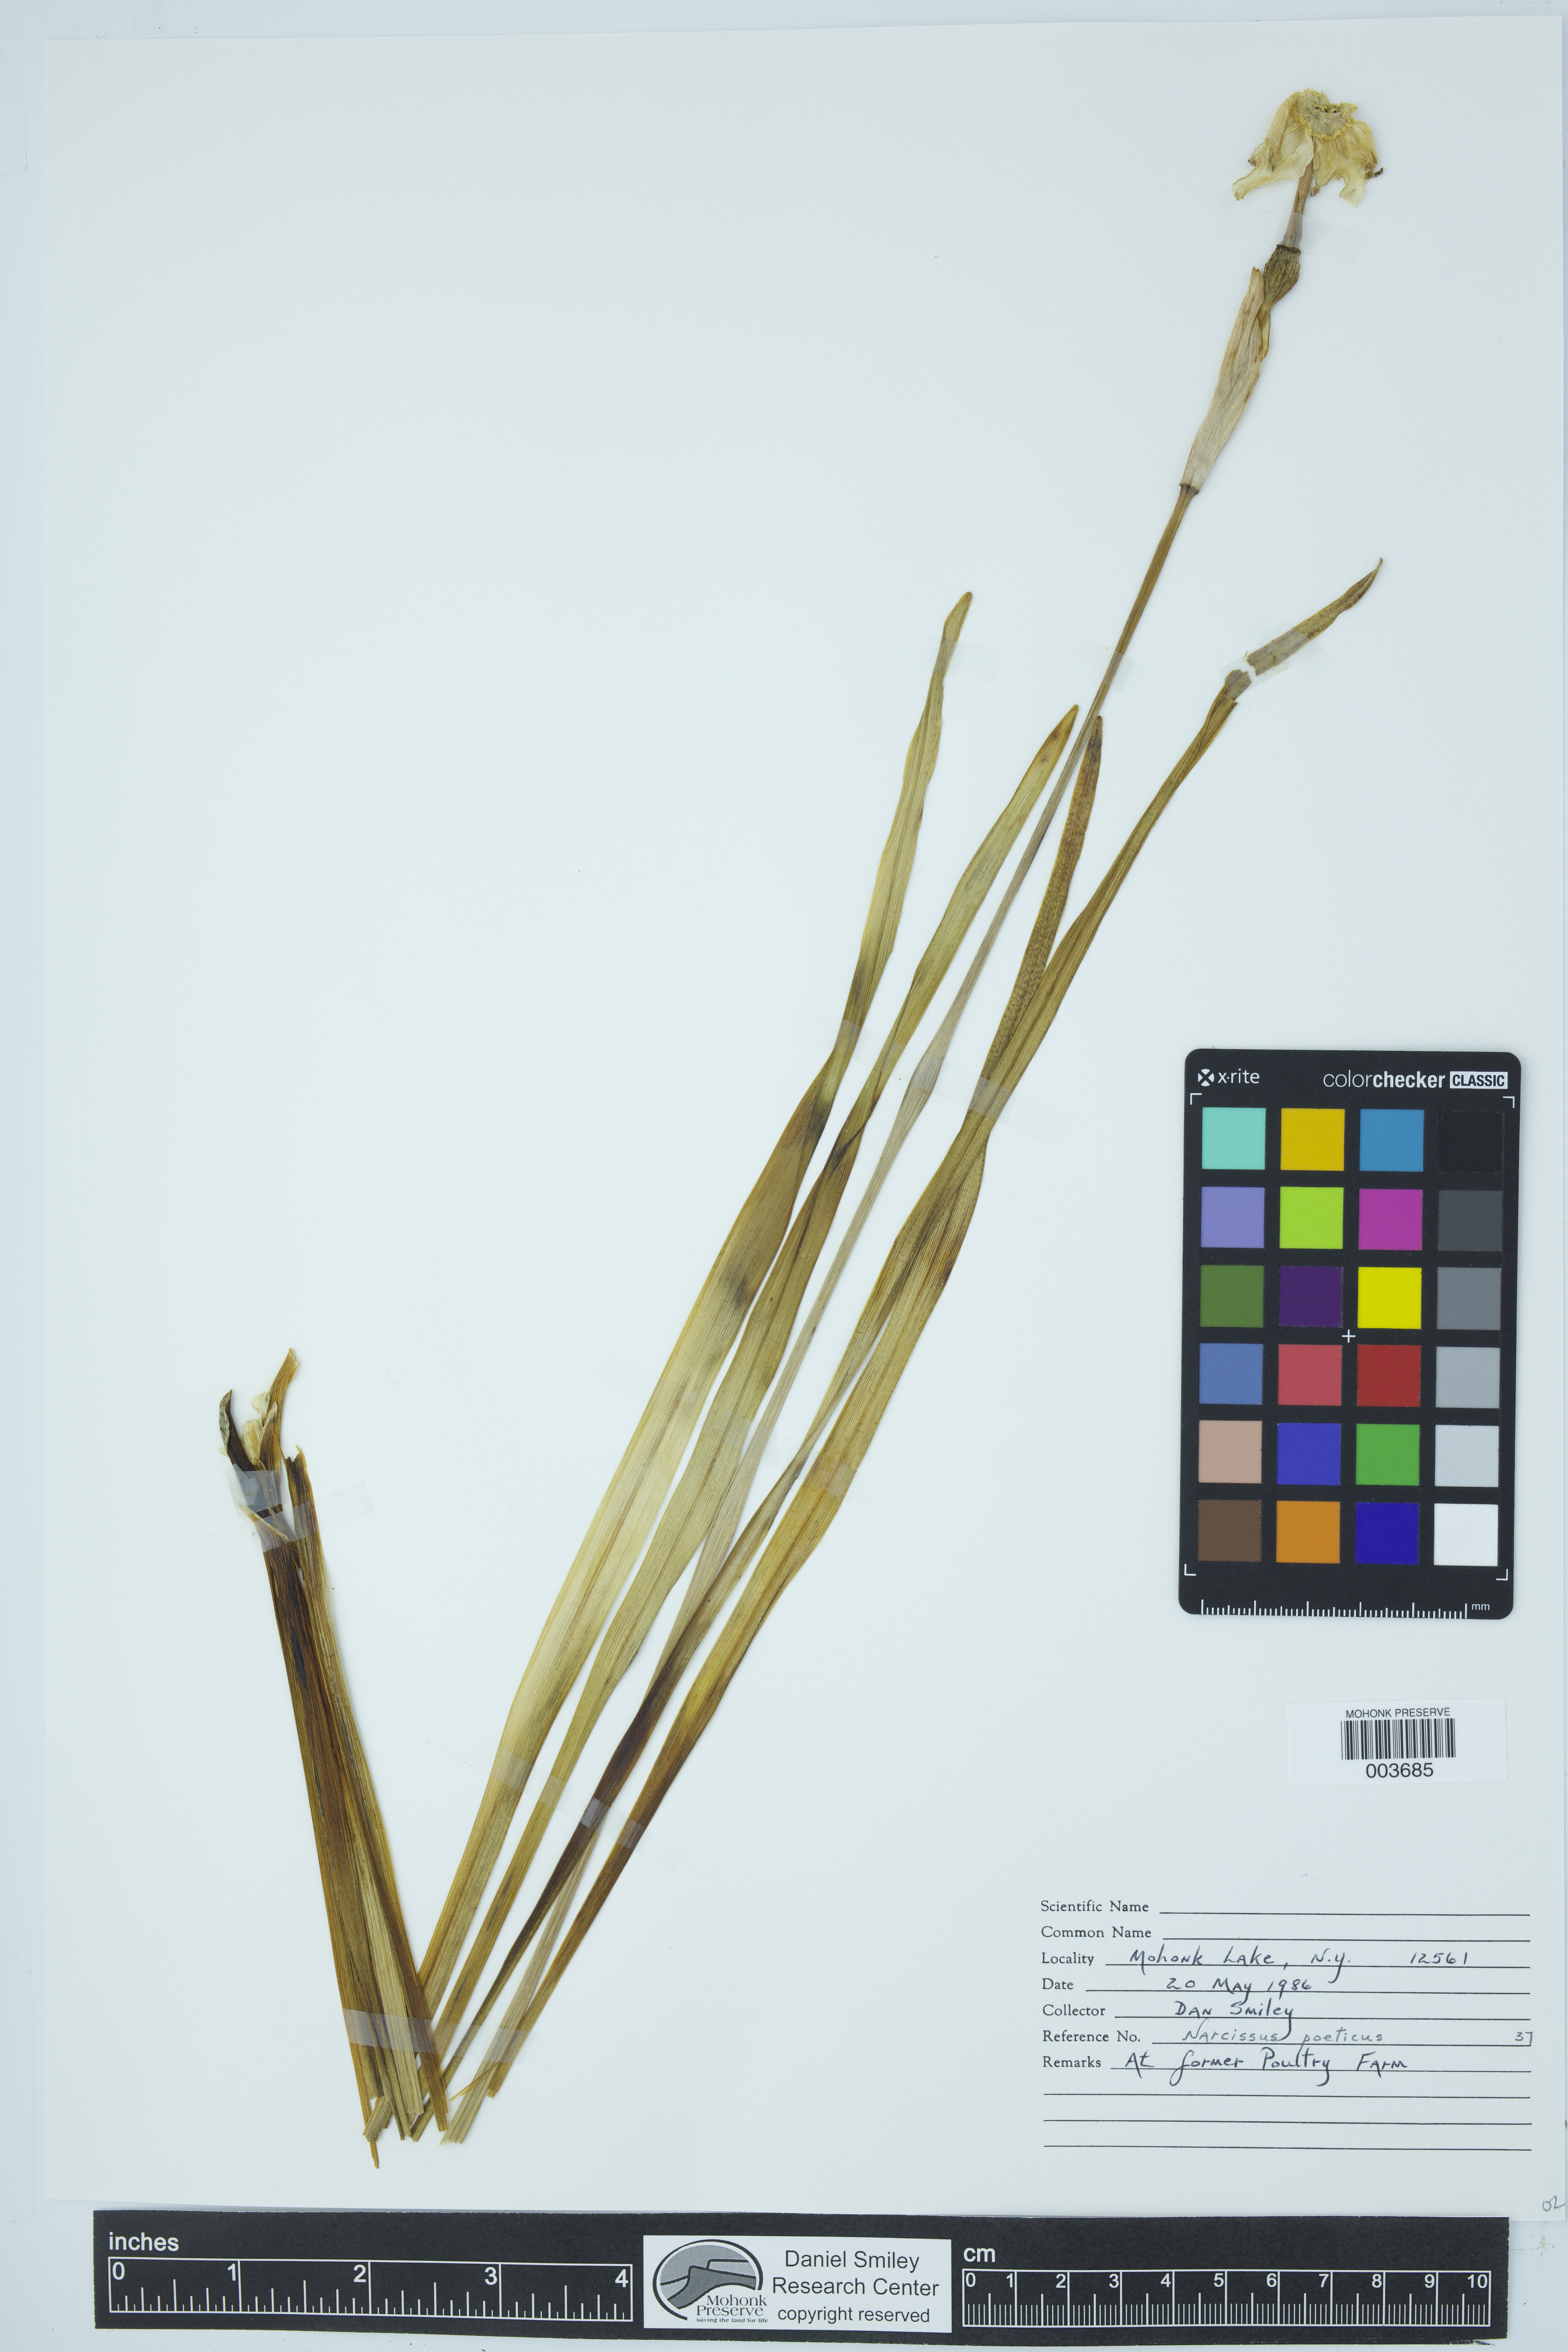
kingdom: Plantae
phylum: Tracheophyta
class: Liliopsida
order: Asparagales
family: Amaryllidaceae
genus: Narcissus
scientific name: Narcissus poeticus
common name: Pheasant's-eye daffodil
